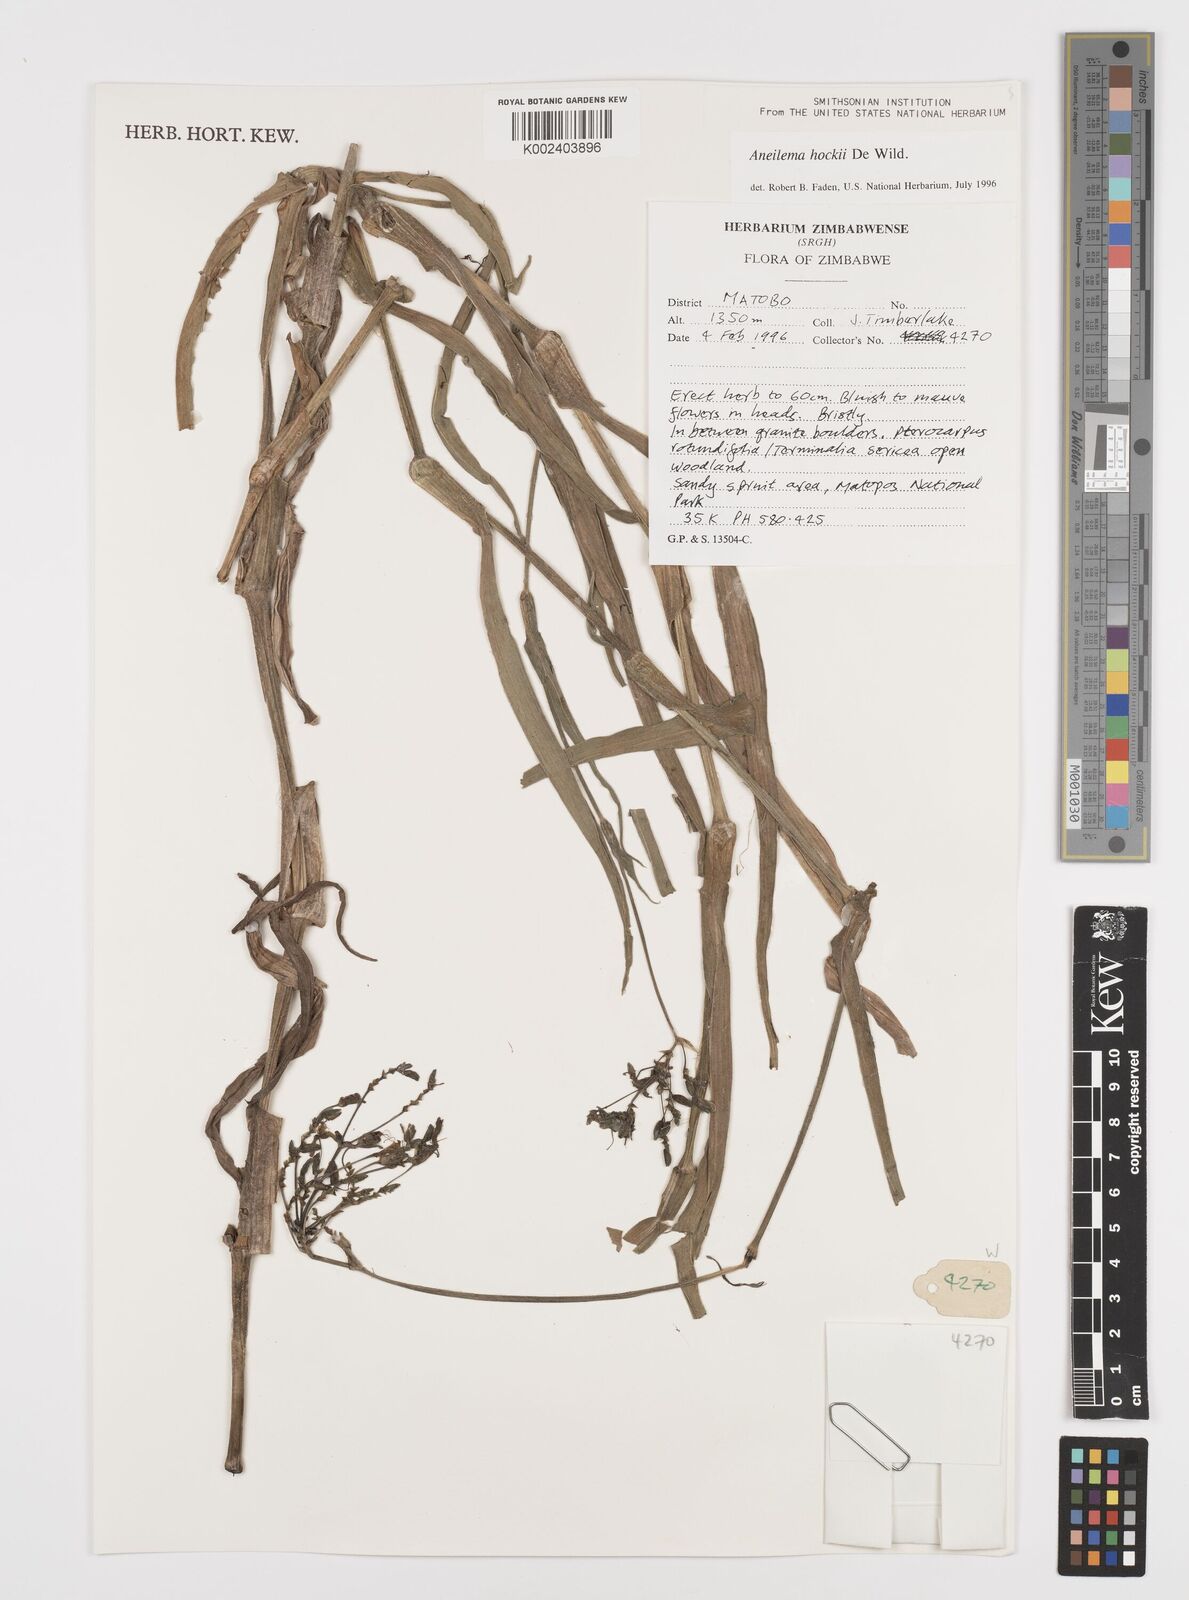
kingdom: Plantae
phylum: Tracheophyta
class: Liliopsida
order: Commelinales
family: Commelinaceae
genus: Aneilema
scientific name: Aneilema hockii
